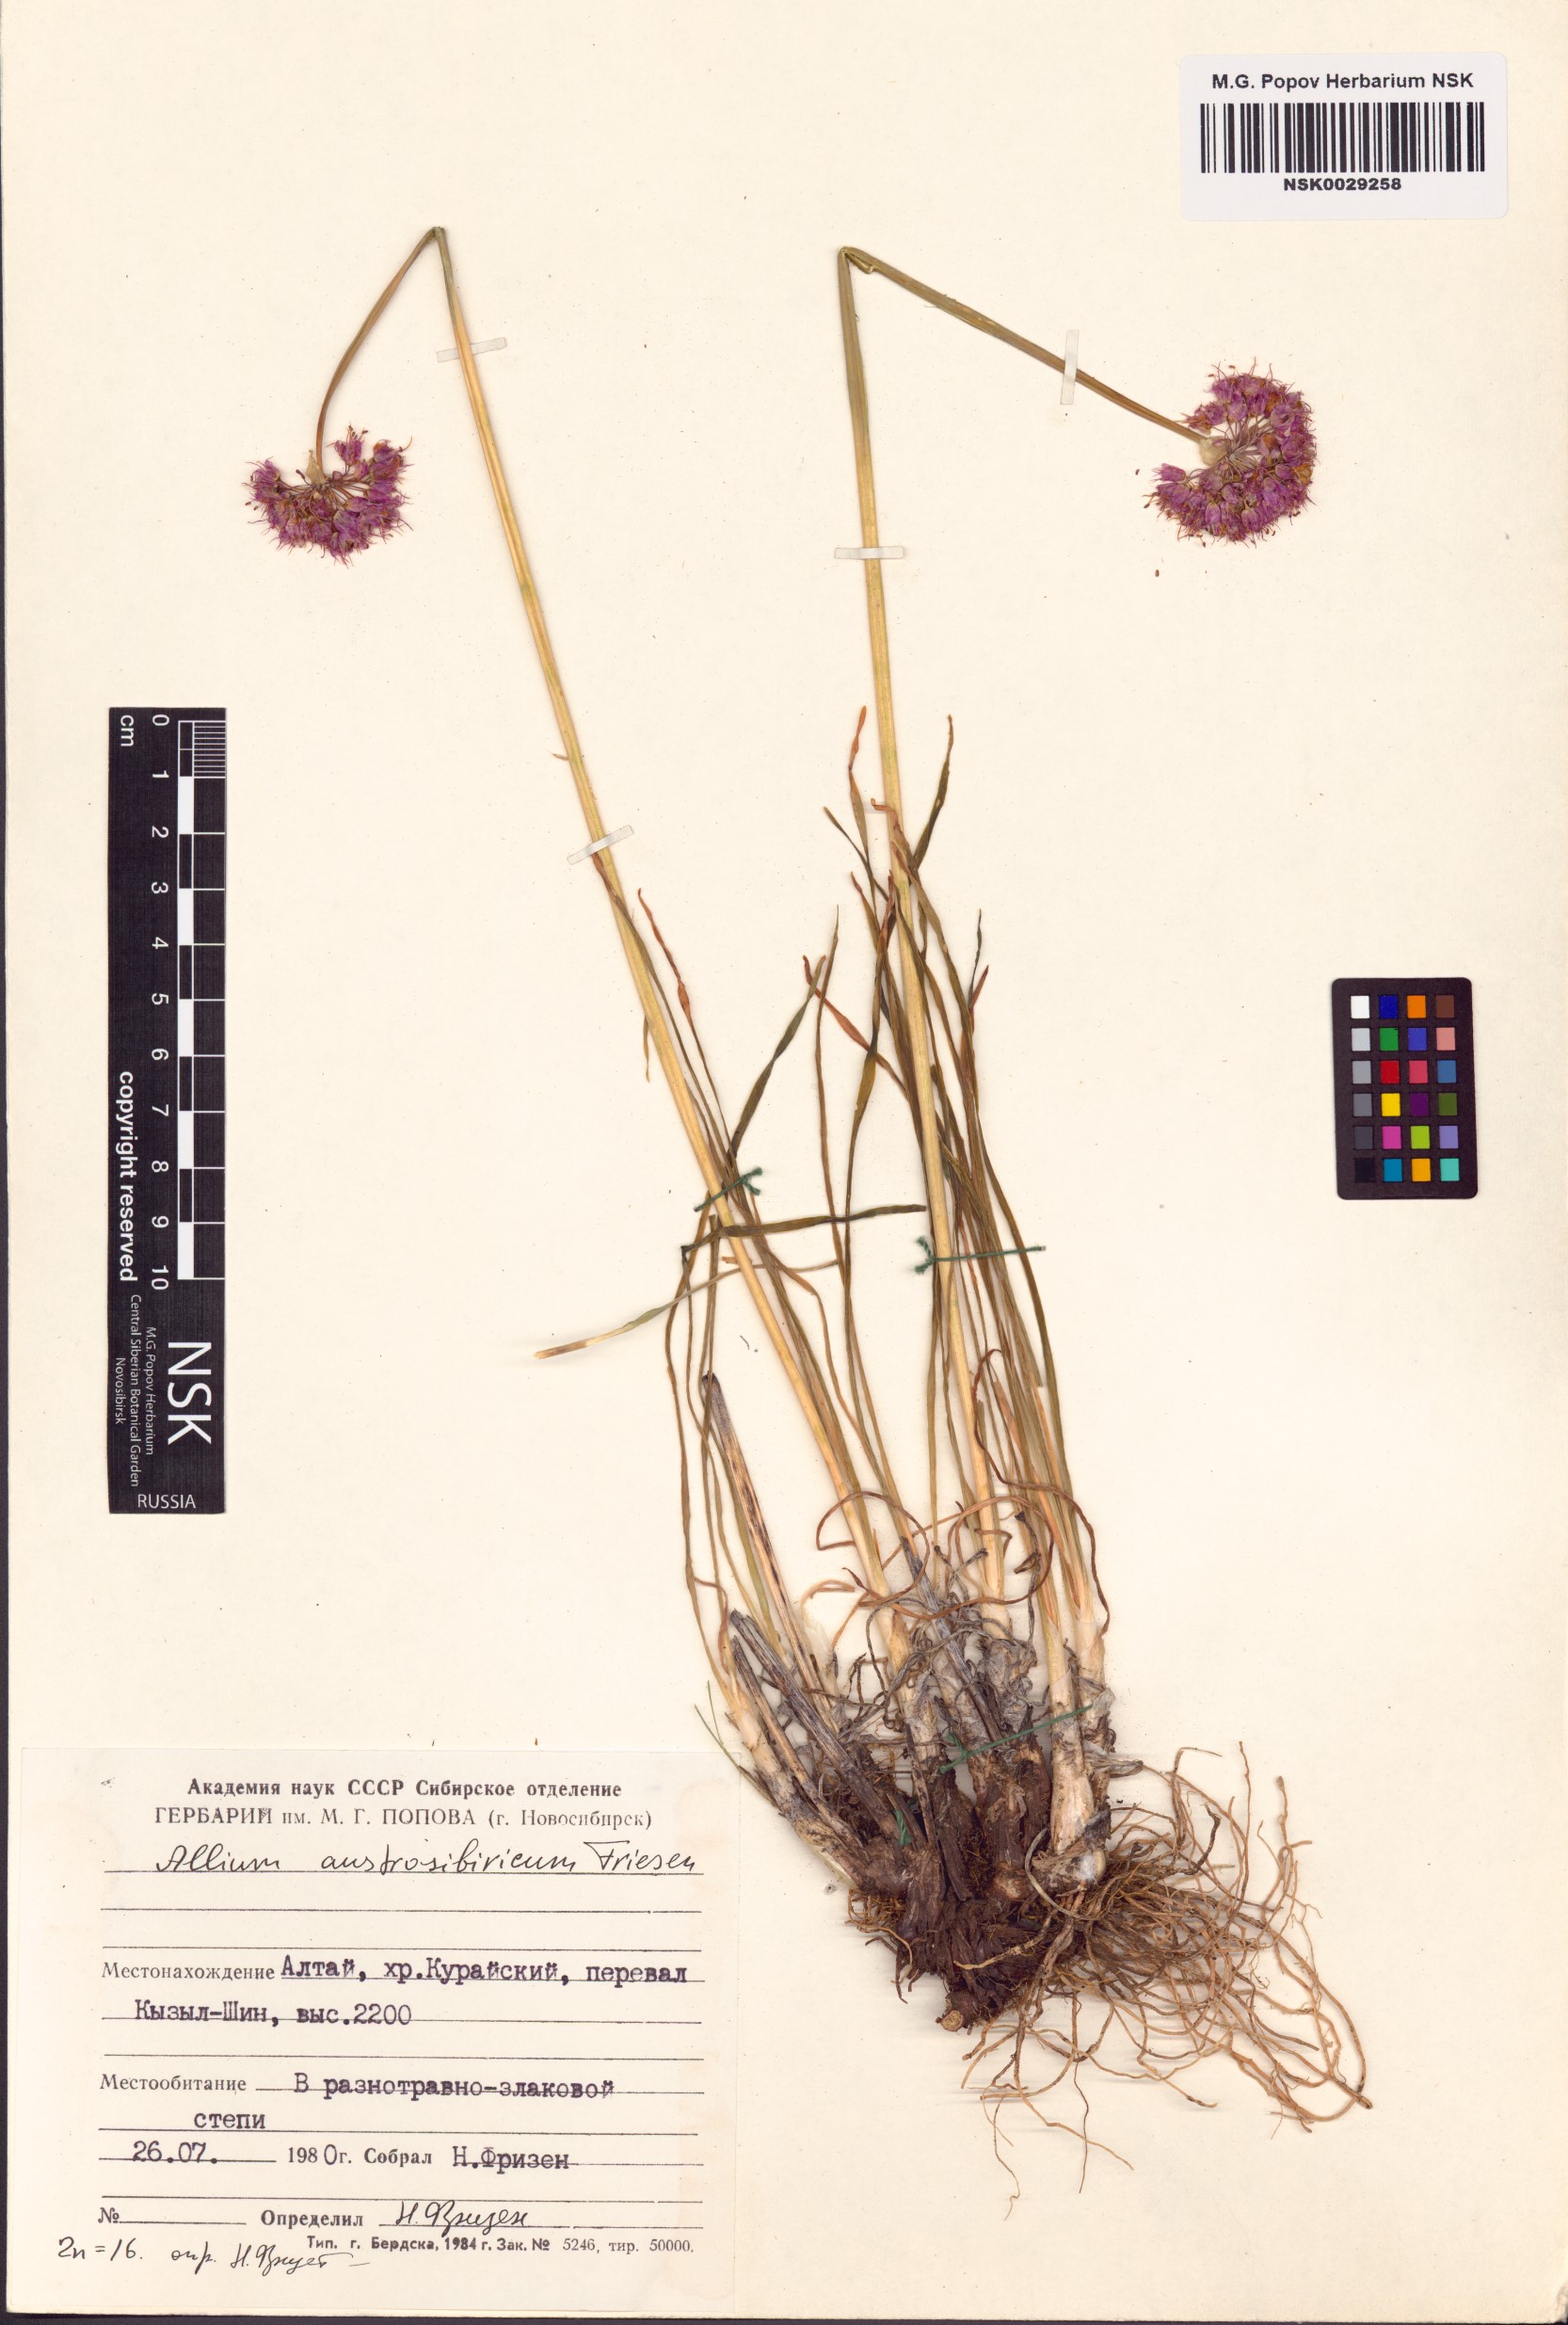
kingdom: Plantae
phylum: Tracheophyta
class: Liliopsida
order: Asparagales
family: Amaryllidaceae
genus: Allium
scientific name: Allium austrosibiricum
